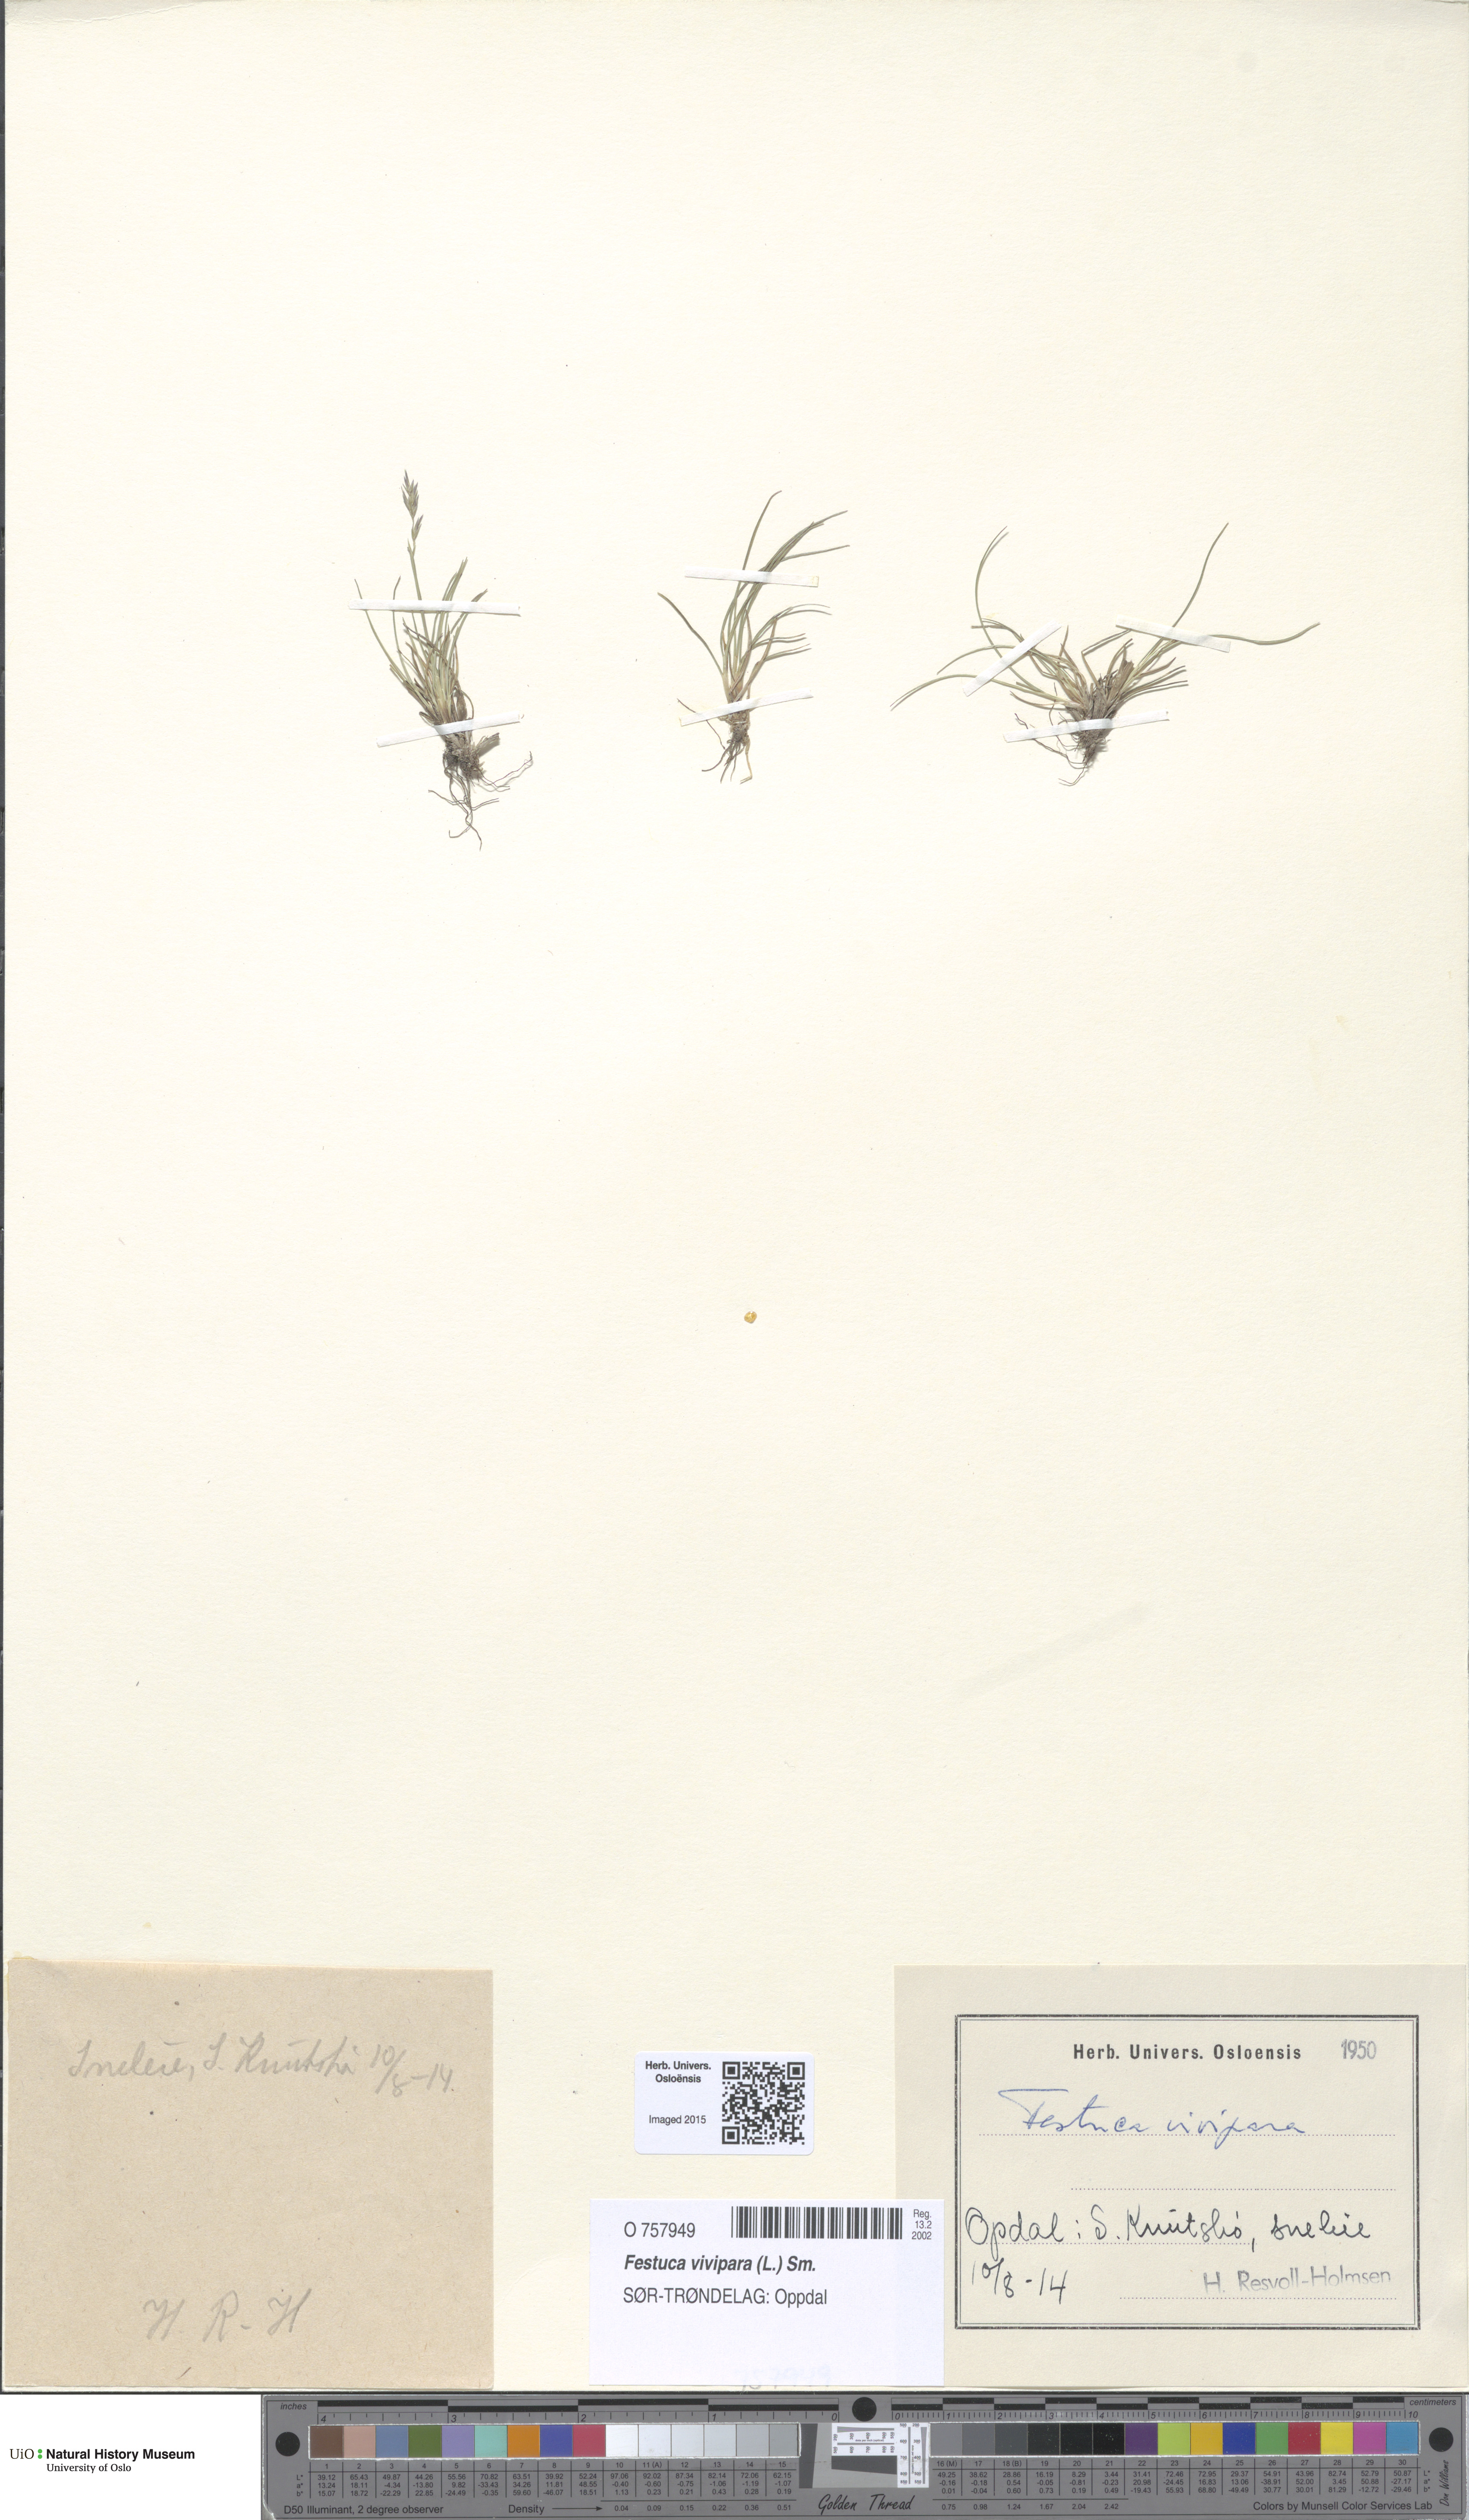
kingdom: Plantae
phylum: Tracheophyta
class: Liliopsida
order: Poales
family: Poaceae
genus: Festuca
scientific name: Festuca vivipara
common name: Viviparous sheep's-fescue
